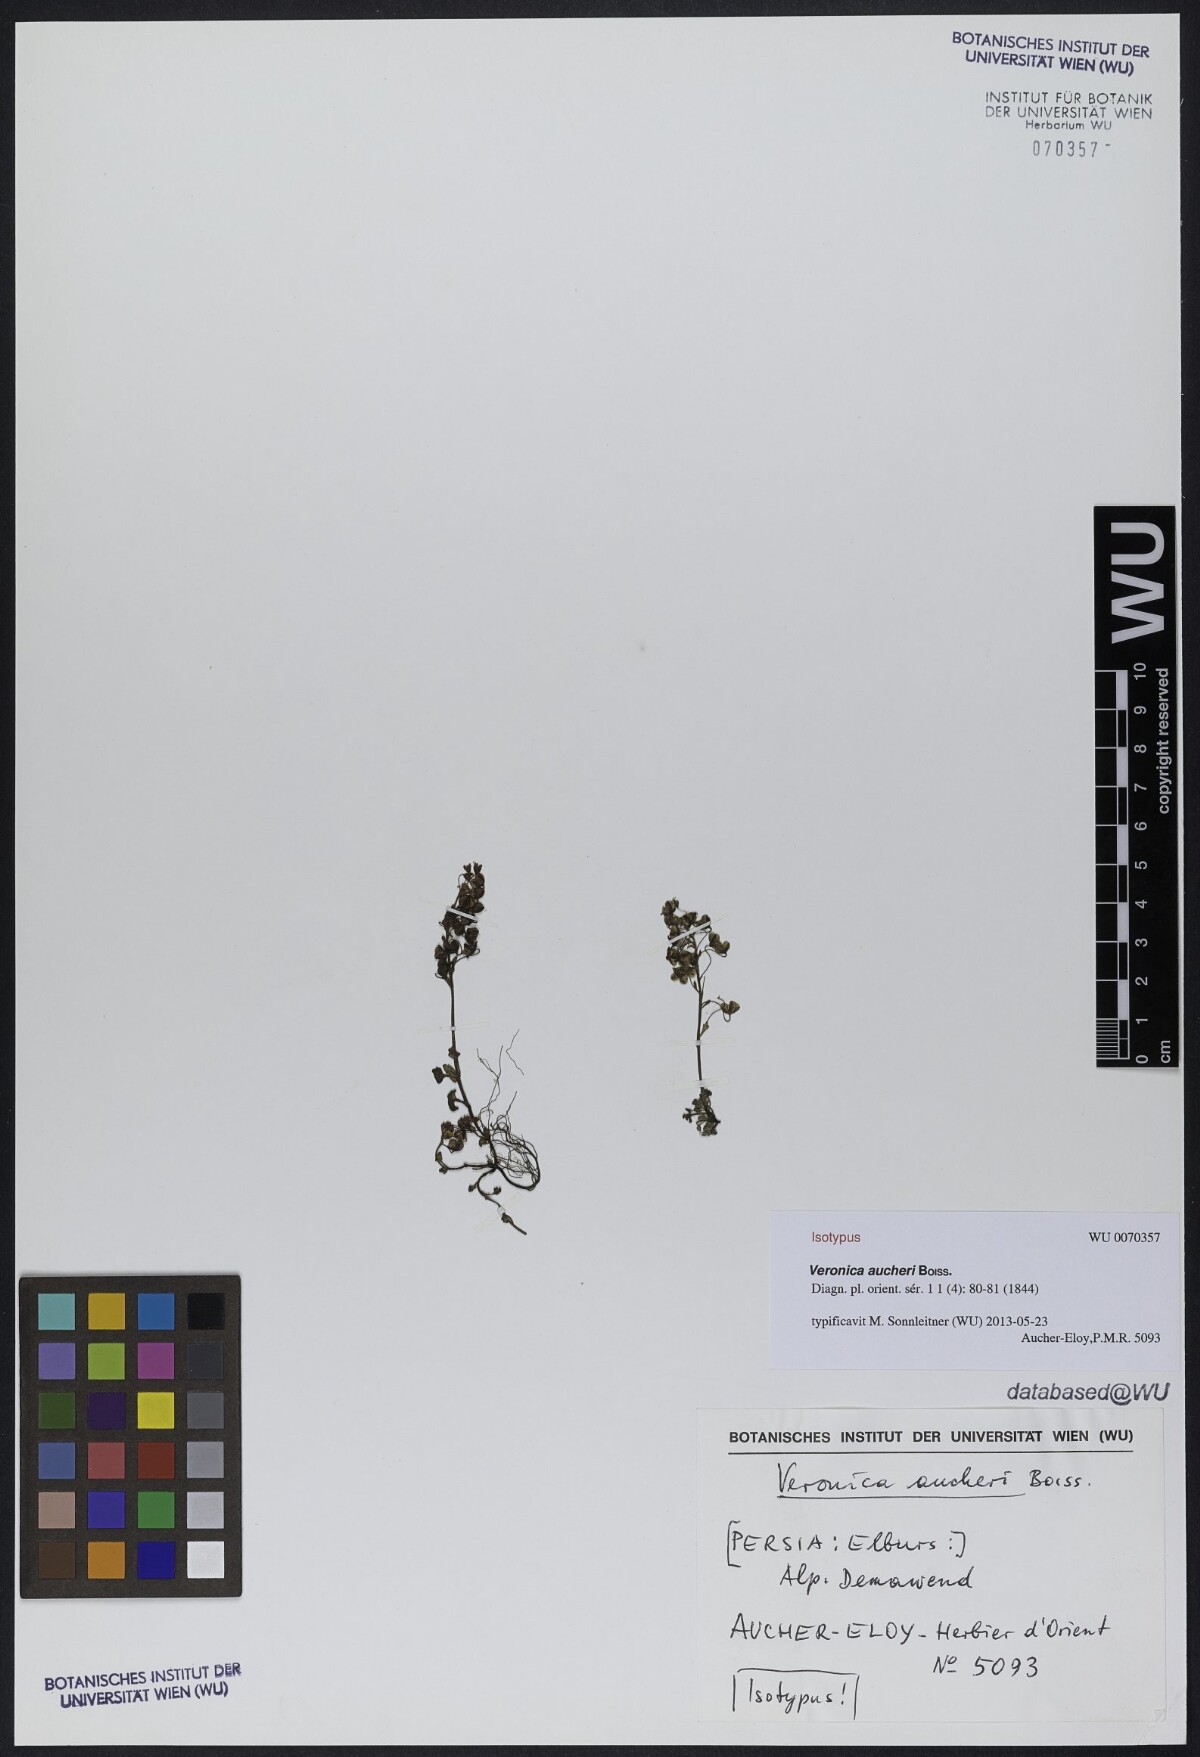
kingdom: Plantae
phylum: Tracheophyta
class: Magnoliopsida
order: Lamiales
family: Plantaginaceae
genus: Veronica
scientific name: Veronica aucheri
